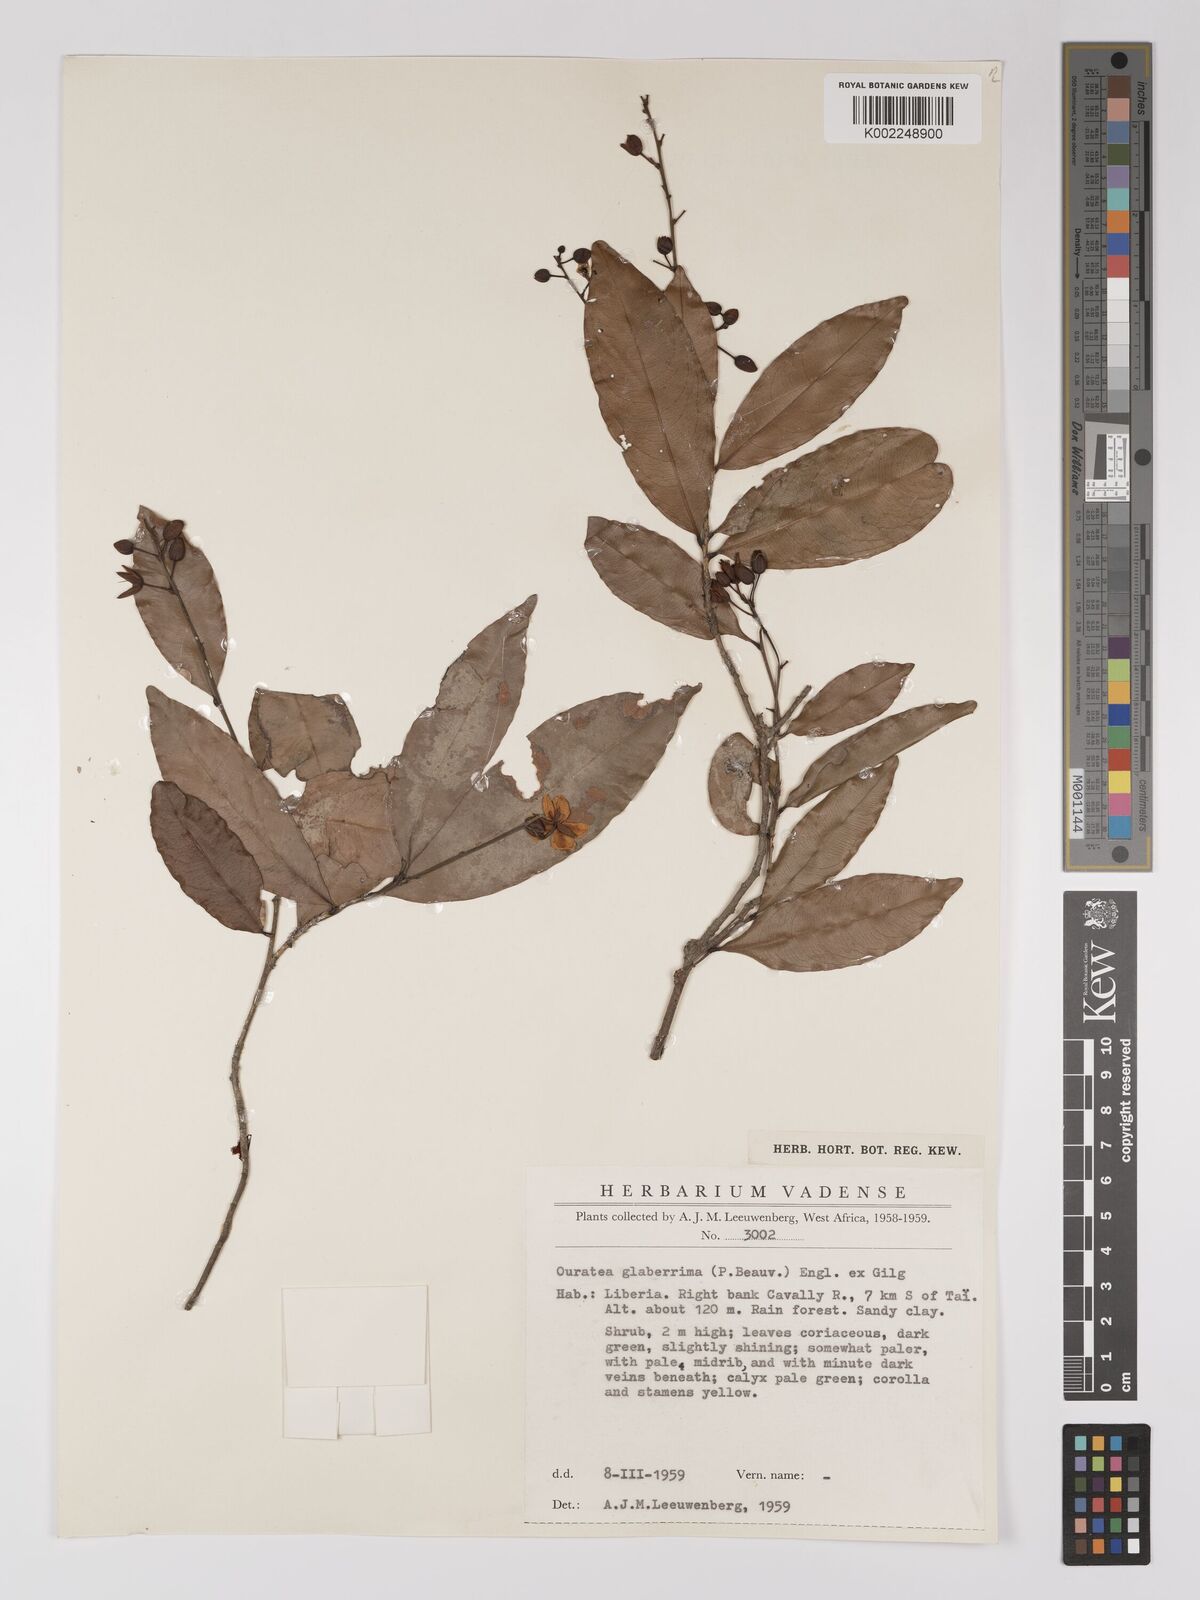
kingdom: Plantae
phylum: Tracheophyta
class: Magnoliopsida
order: Malpighiales
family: Ochnaceae
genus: Campylospermum
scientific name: Campylospermum glaberrimum
